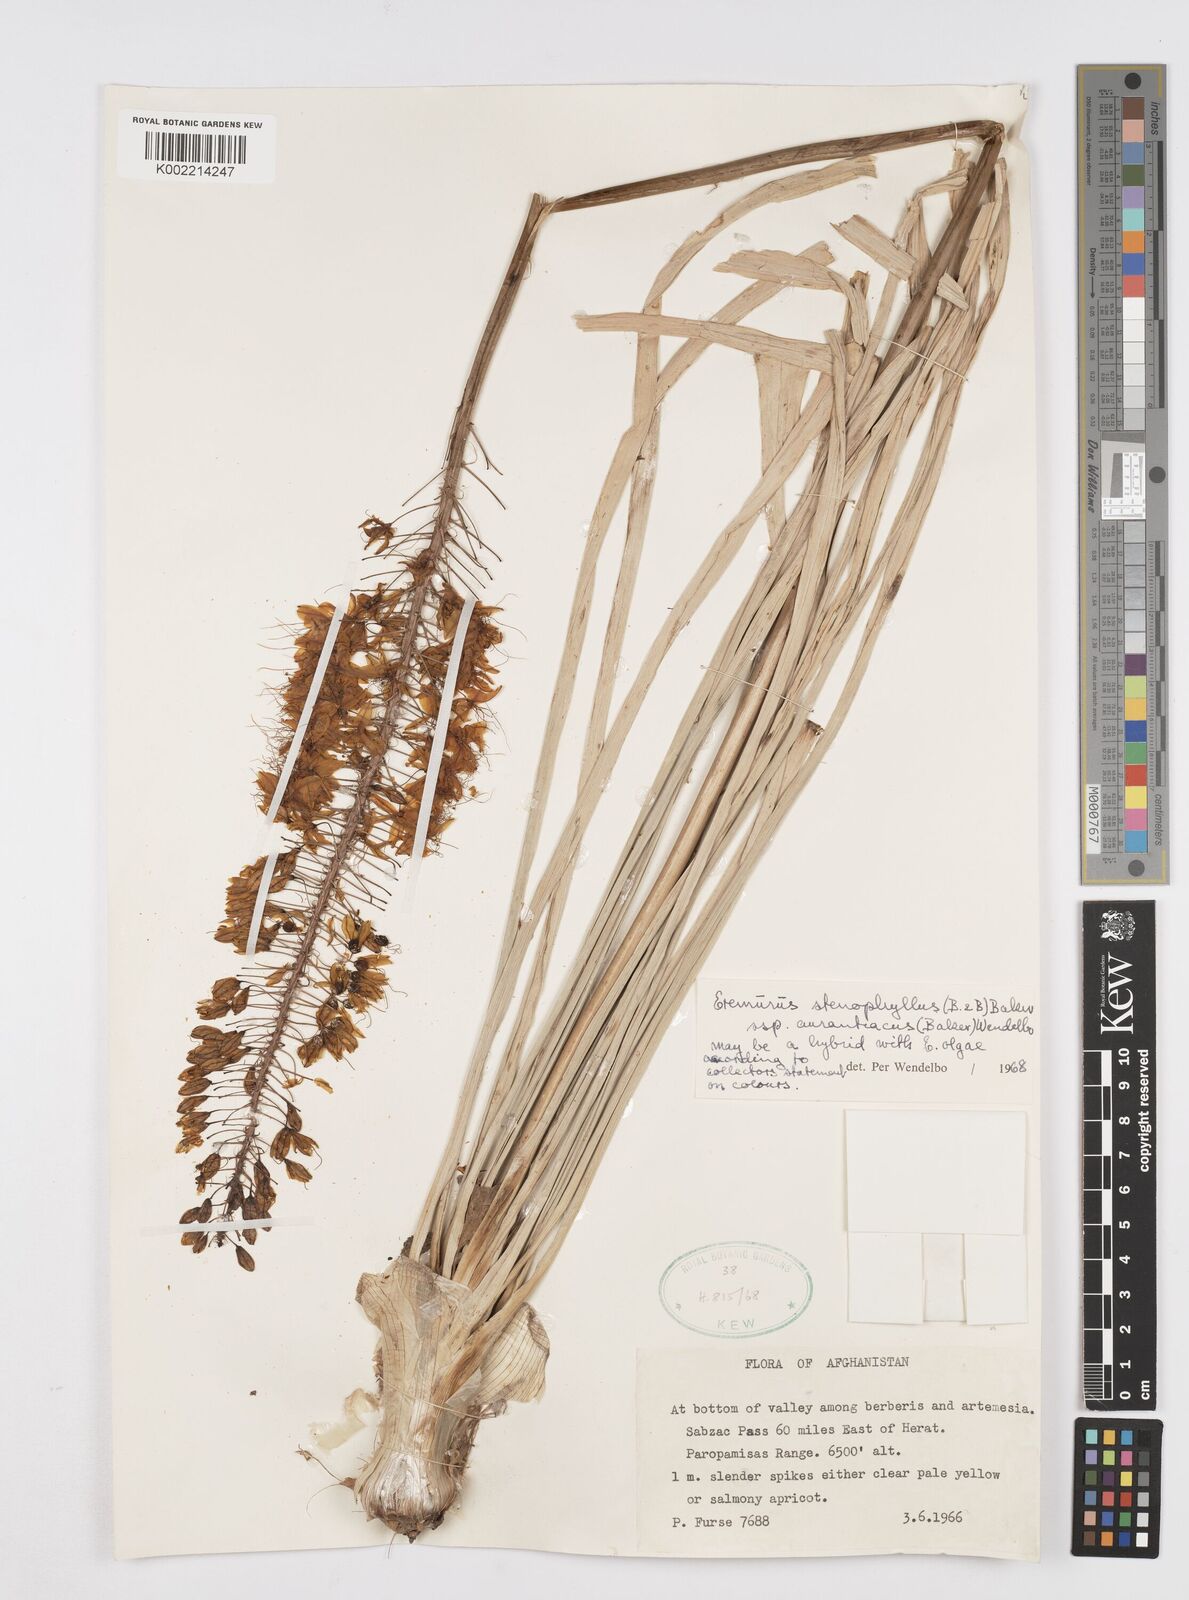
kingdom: Plantae
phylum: Tracheophyta
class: Liliopsida
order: Asparagales
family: Asphodelaceae
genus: Eremurus
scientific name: Eremurus stenophyllus
